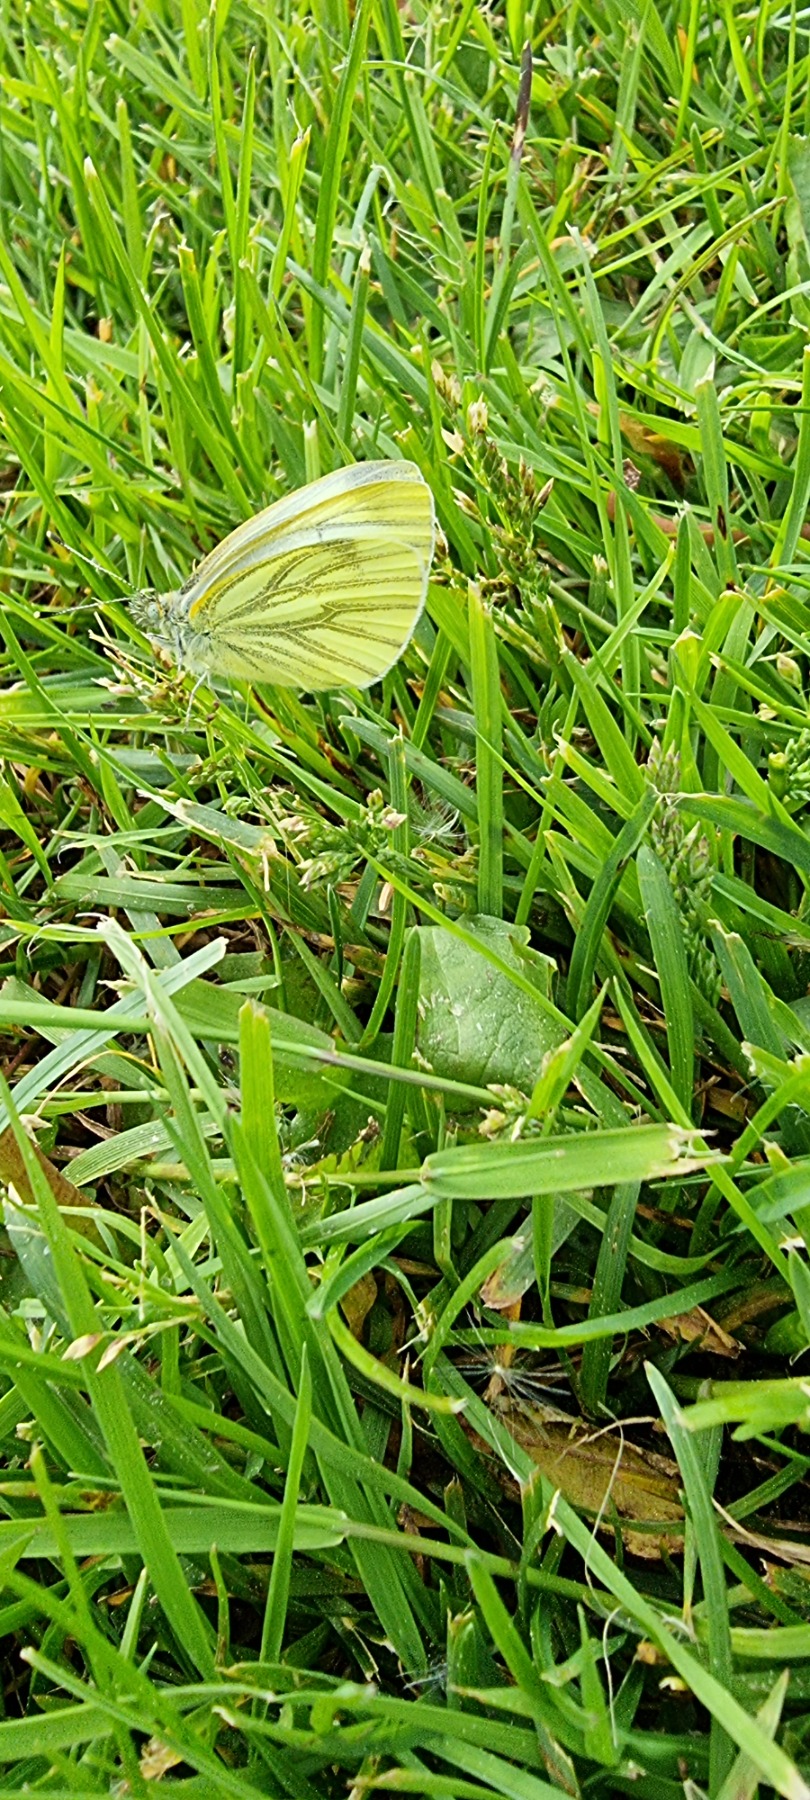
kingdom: Animalia
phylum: Arthropoda
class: Insecta
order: Lepidoptera
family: Pieridae
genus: Pieris
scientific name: Pieris napi
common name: Grønåret kålsommerfugl
